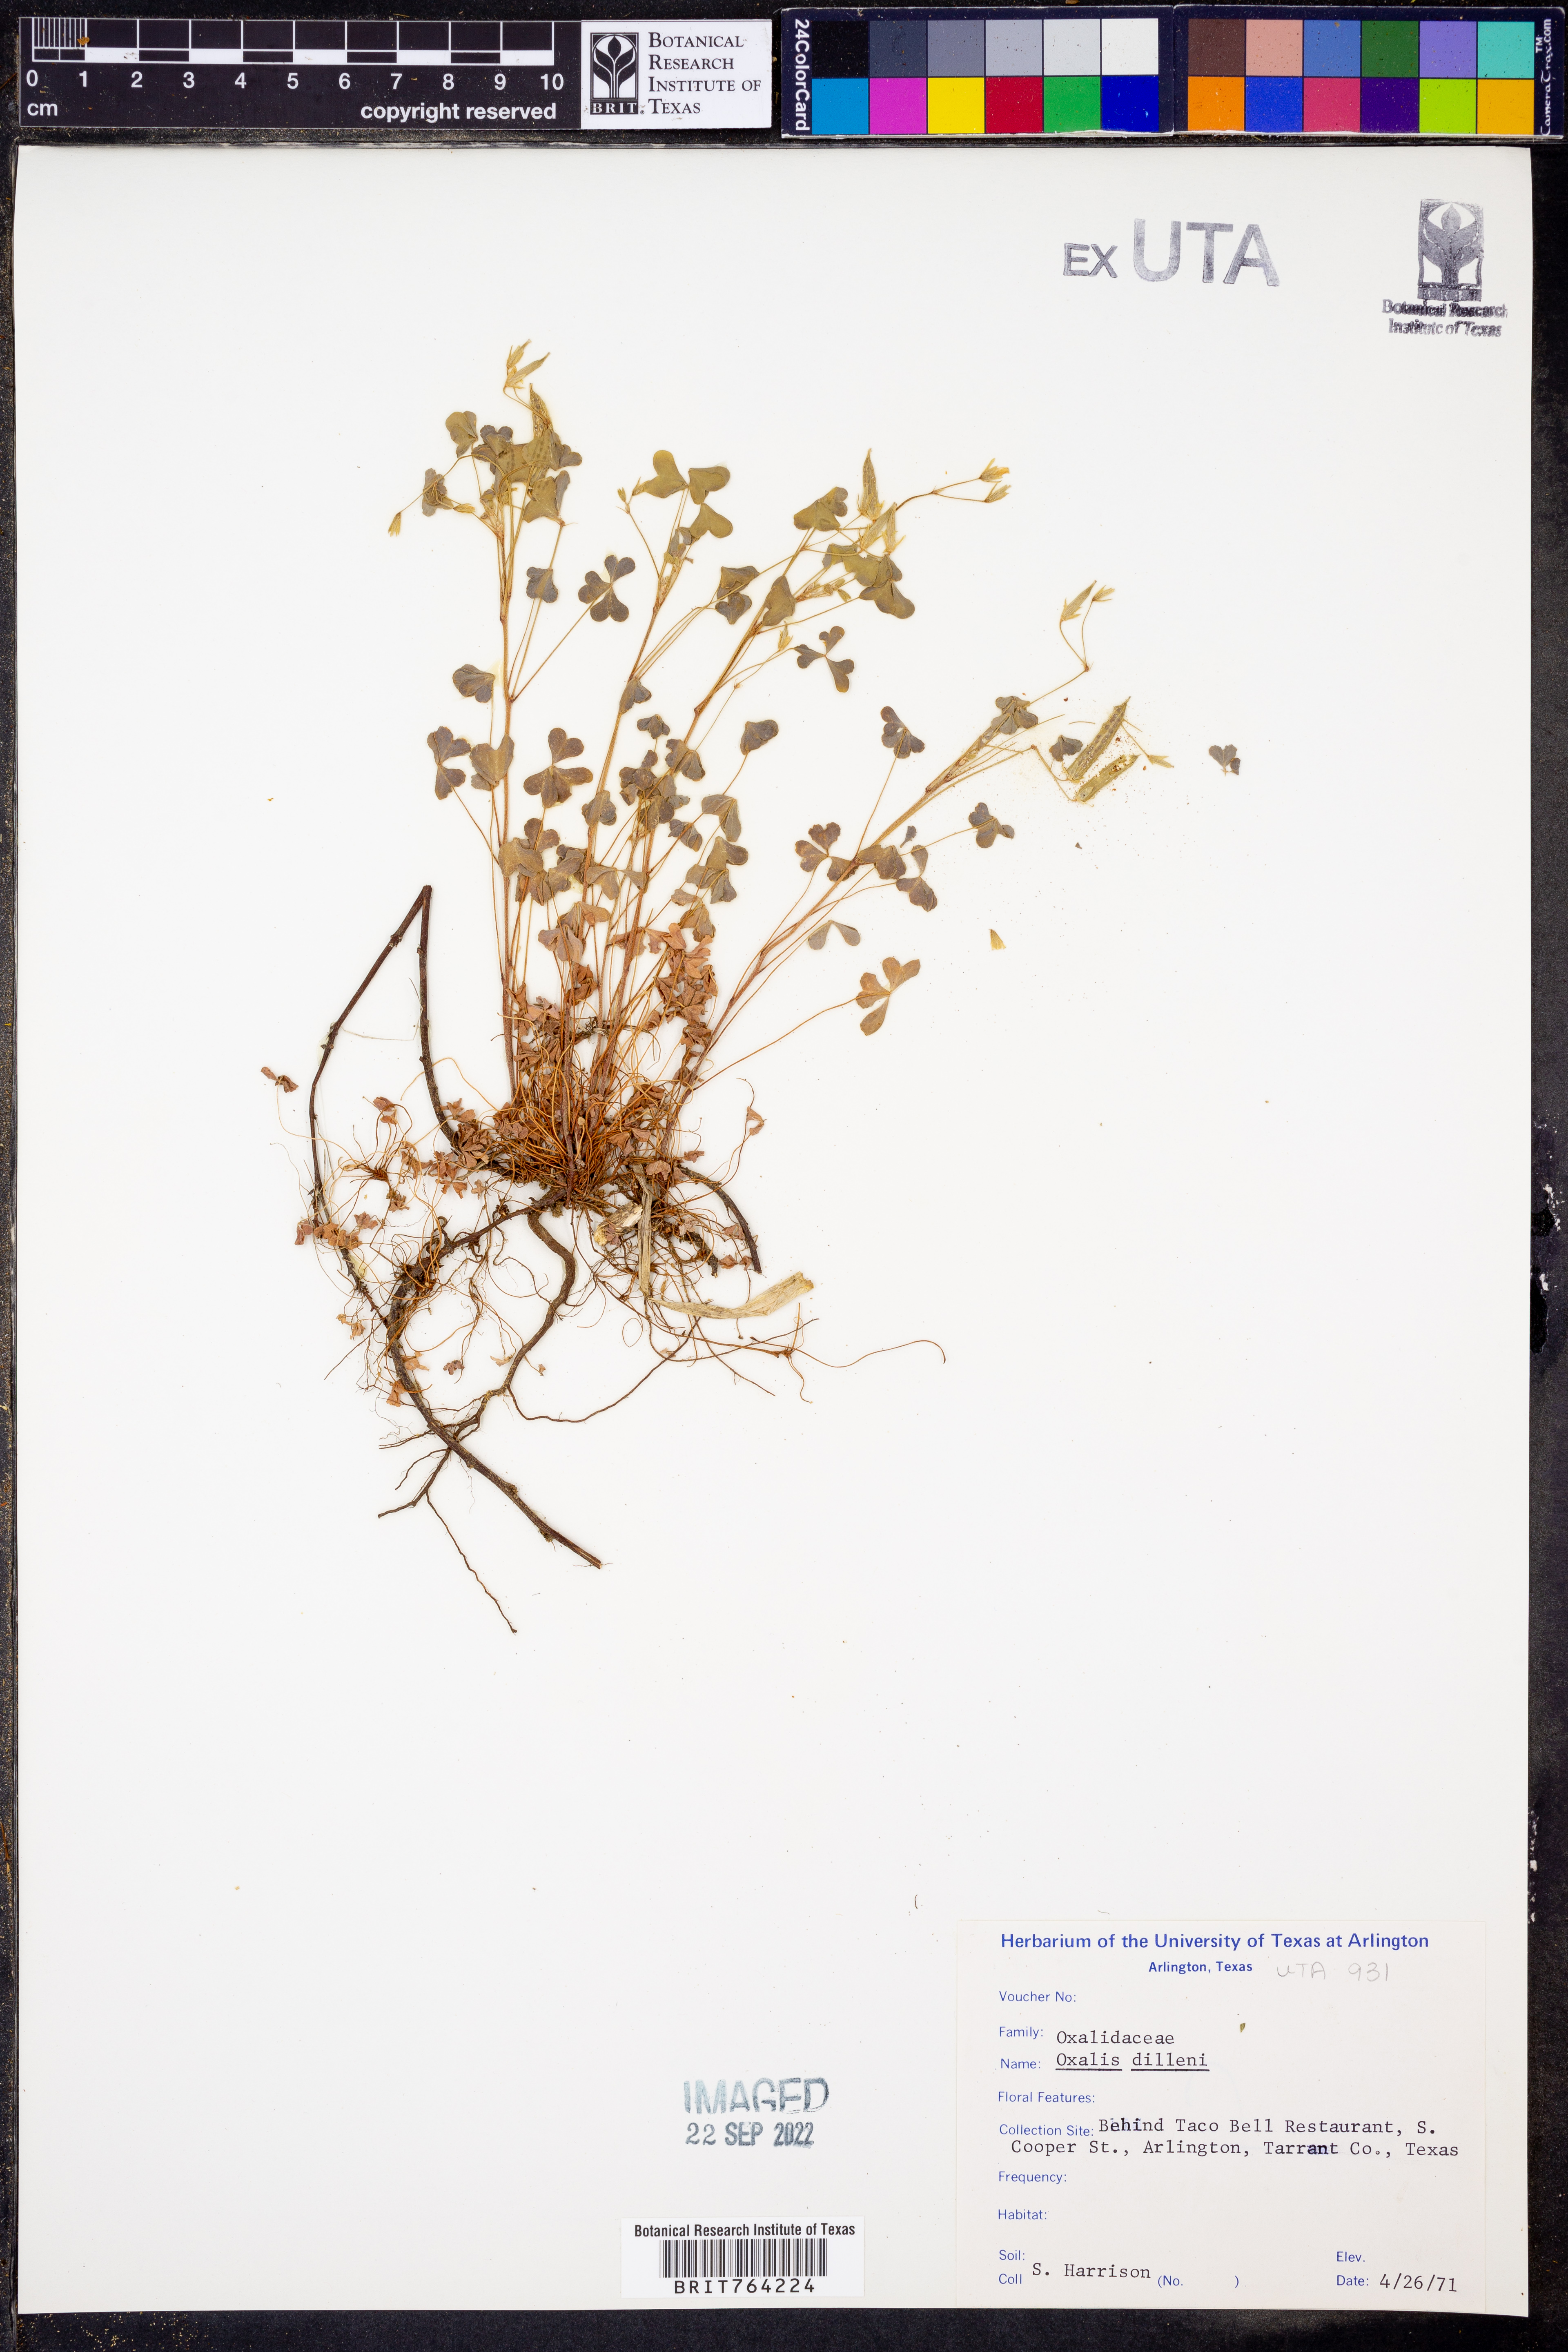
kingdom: Plantae
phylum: Tracheophyta
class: Magnoliopsida
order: Oxalidales
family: Oxalidaceae
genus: Oxalis
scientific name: Oxalis dillenii
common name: Sussex yellow-sorrel
